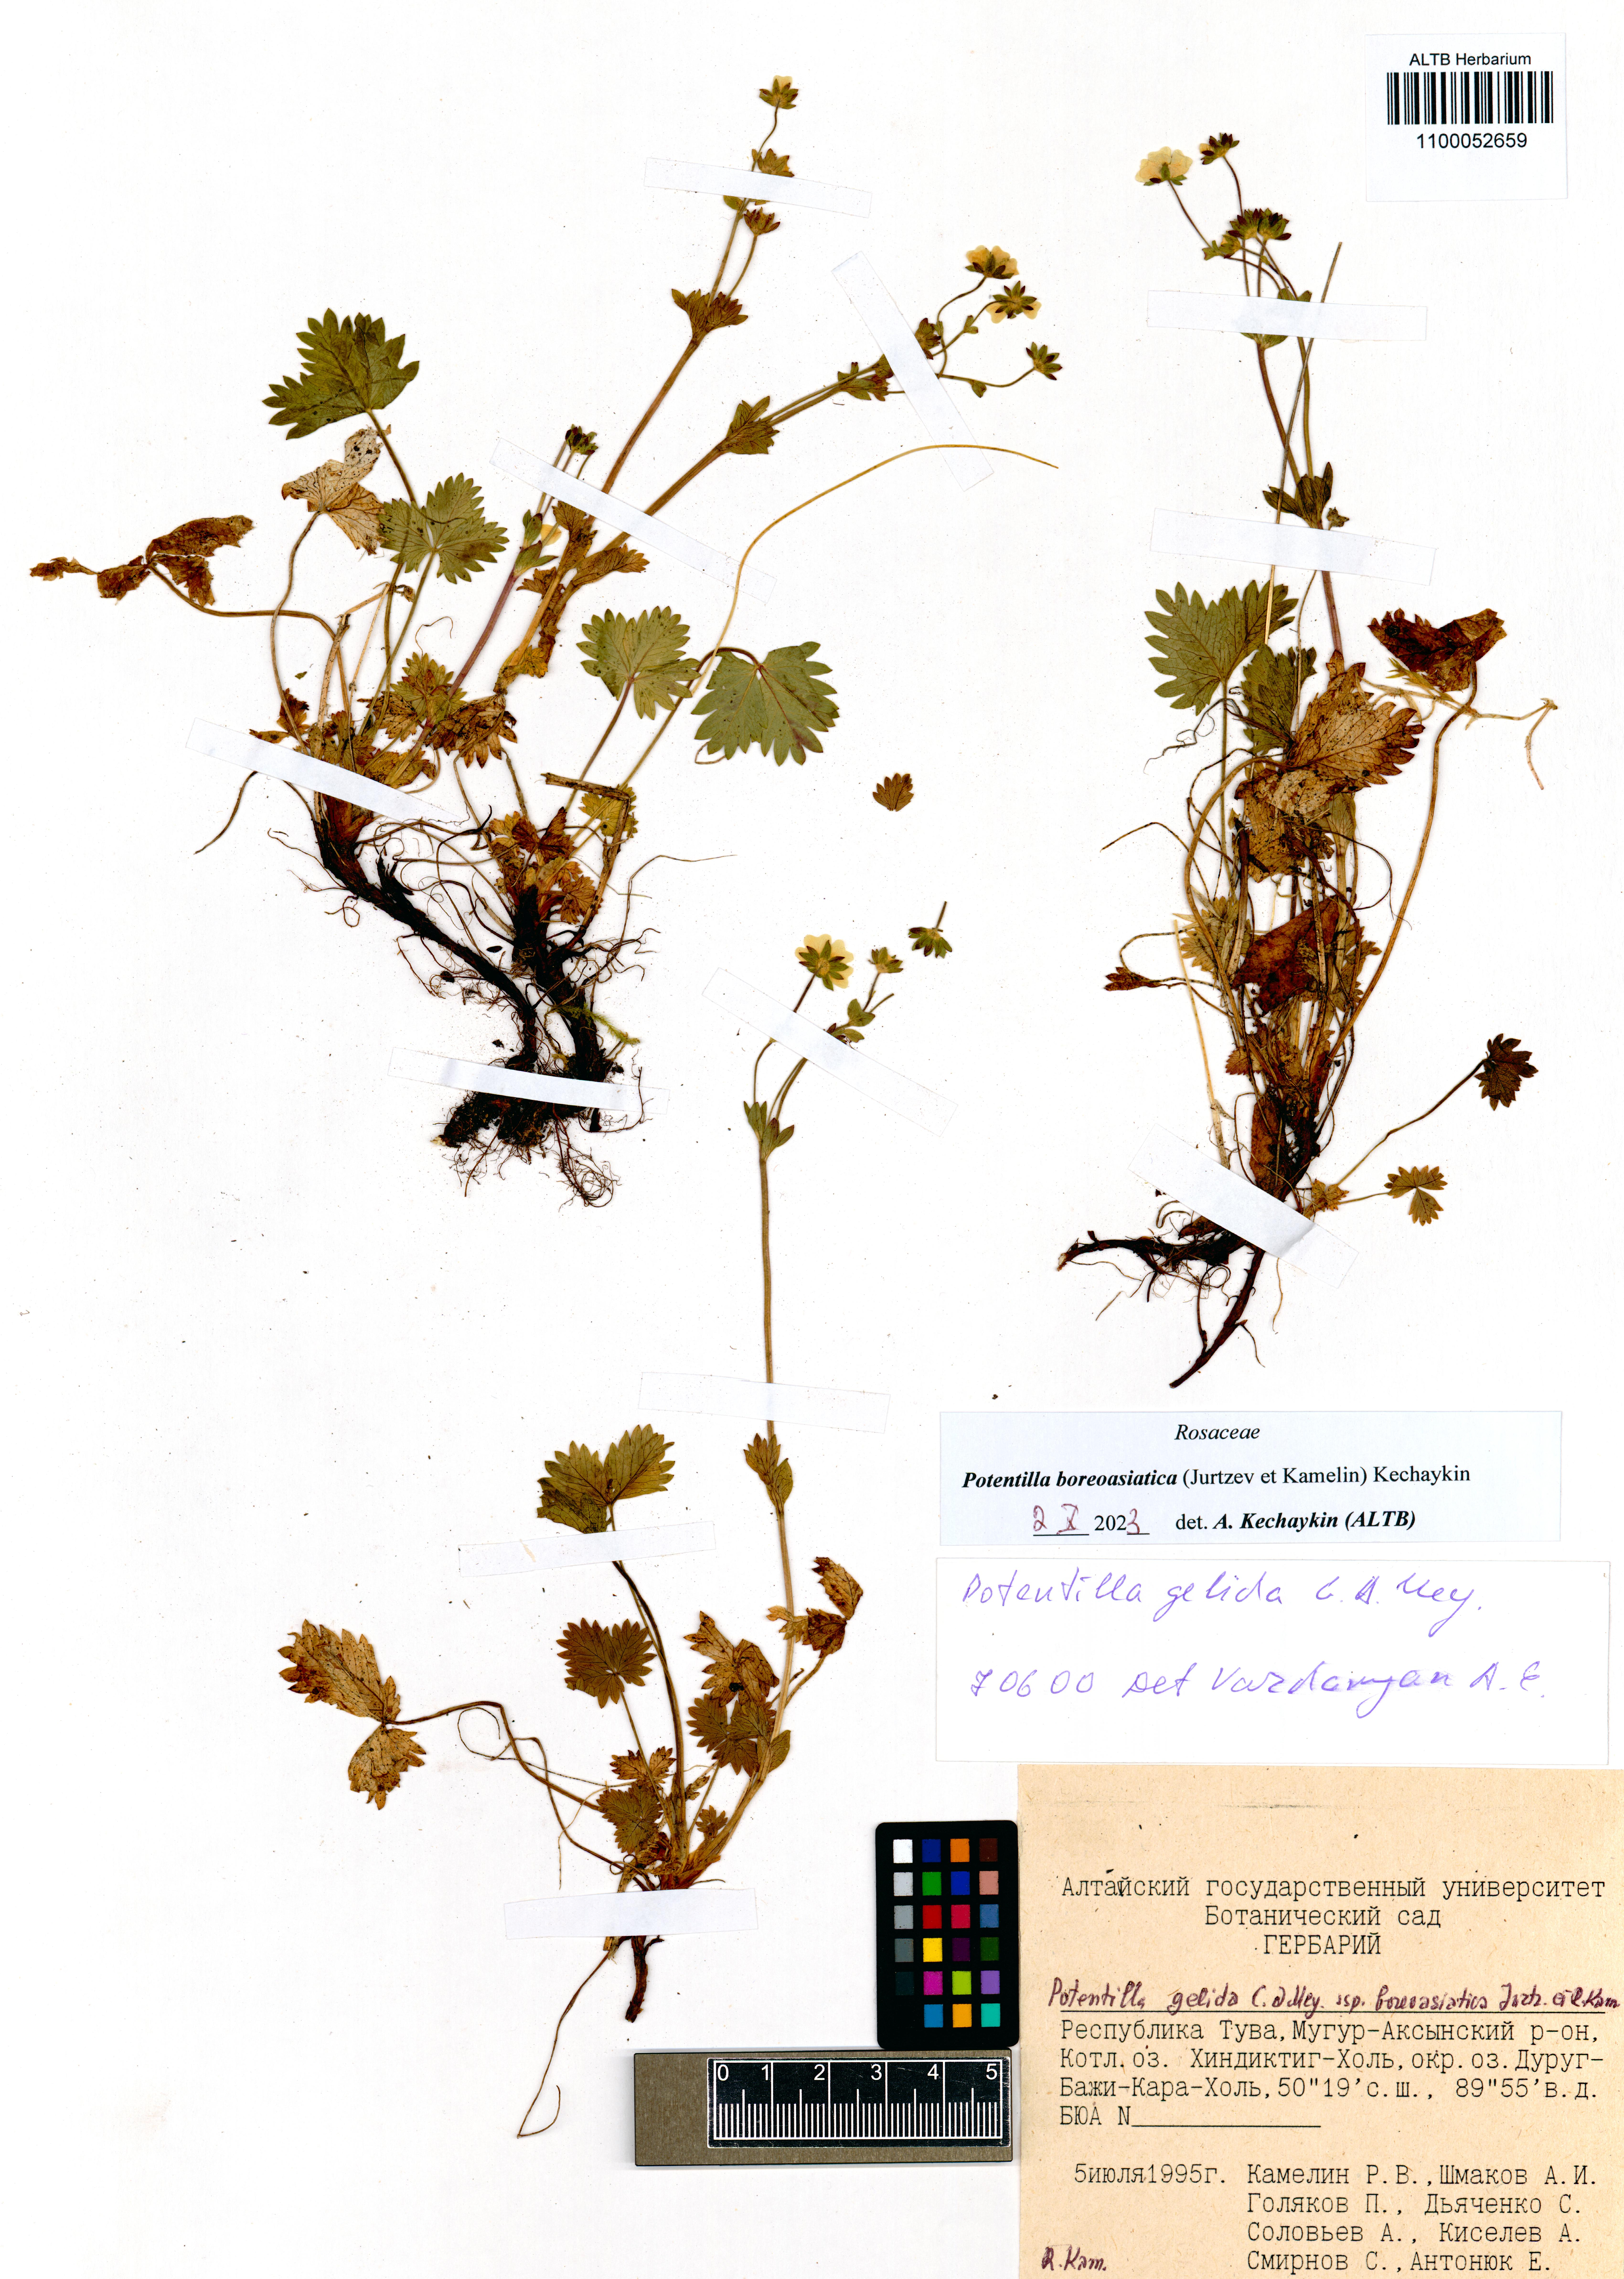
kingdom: Plantae
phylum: Tracheophyta
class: Magnoliopsida
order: Rosales
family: Rosaceae
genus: Potentilla
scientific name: Potentilla
